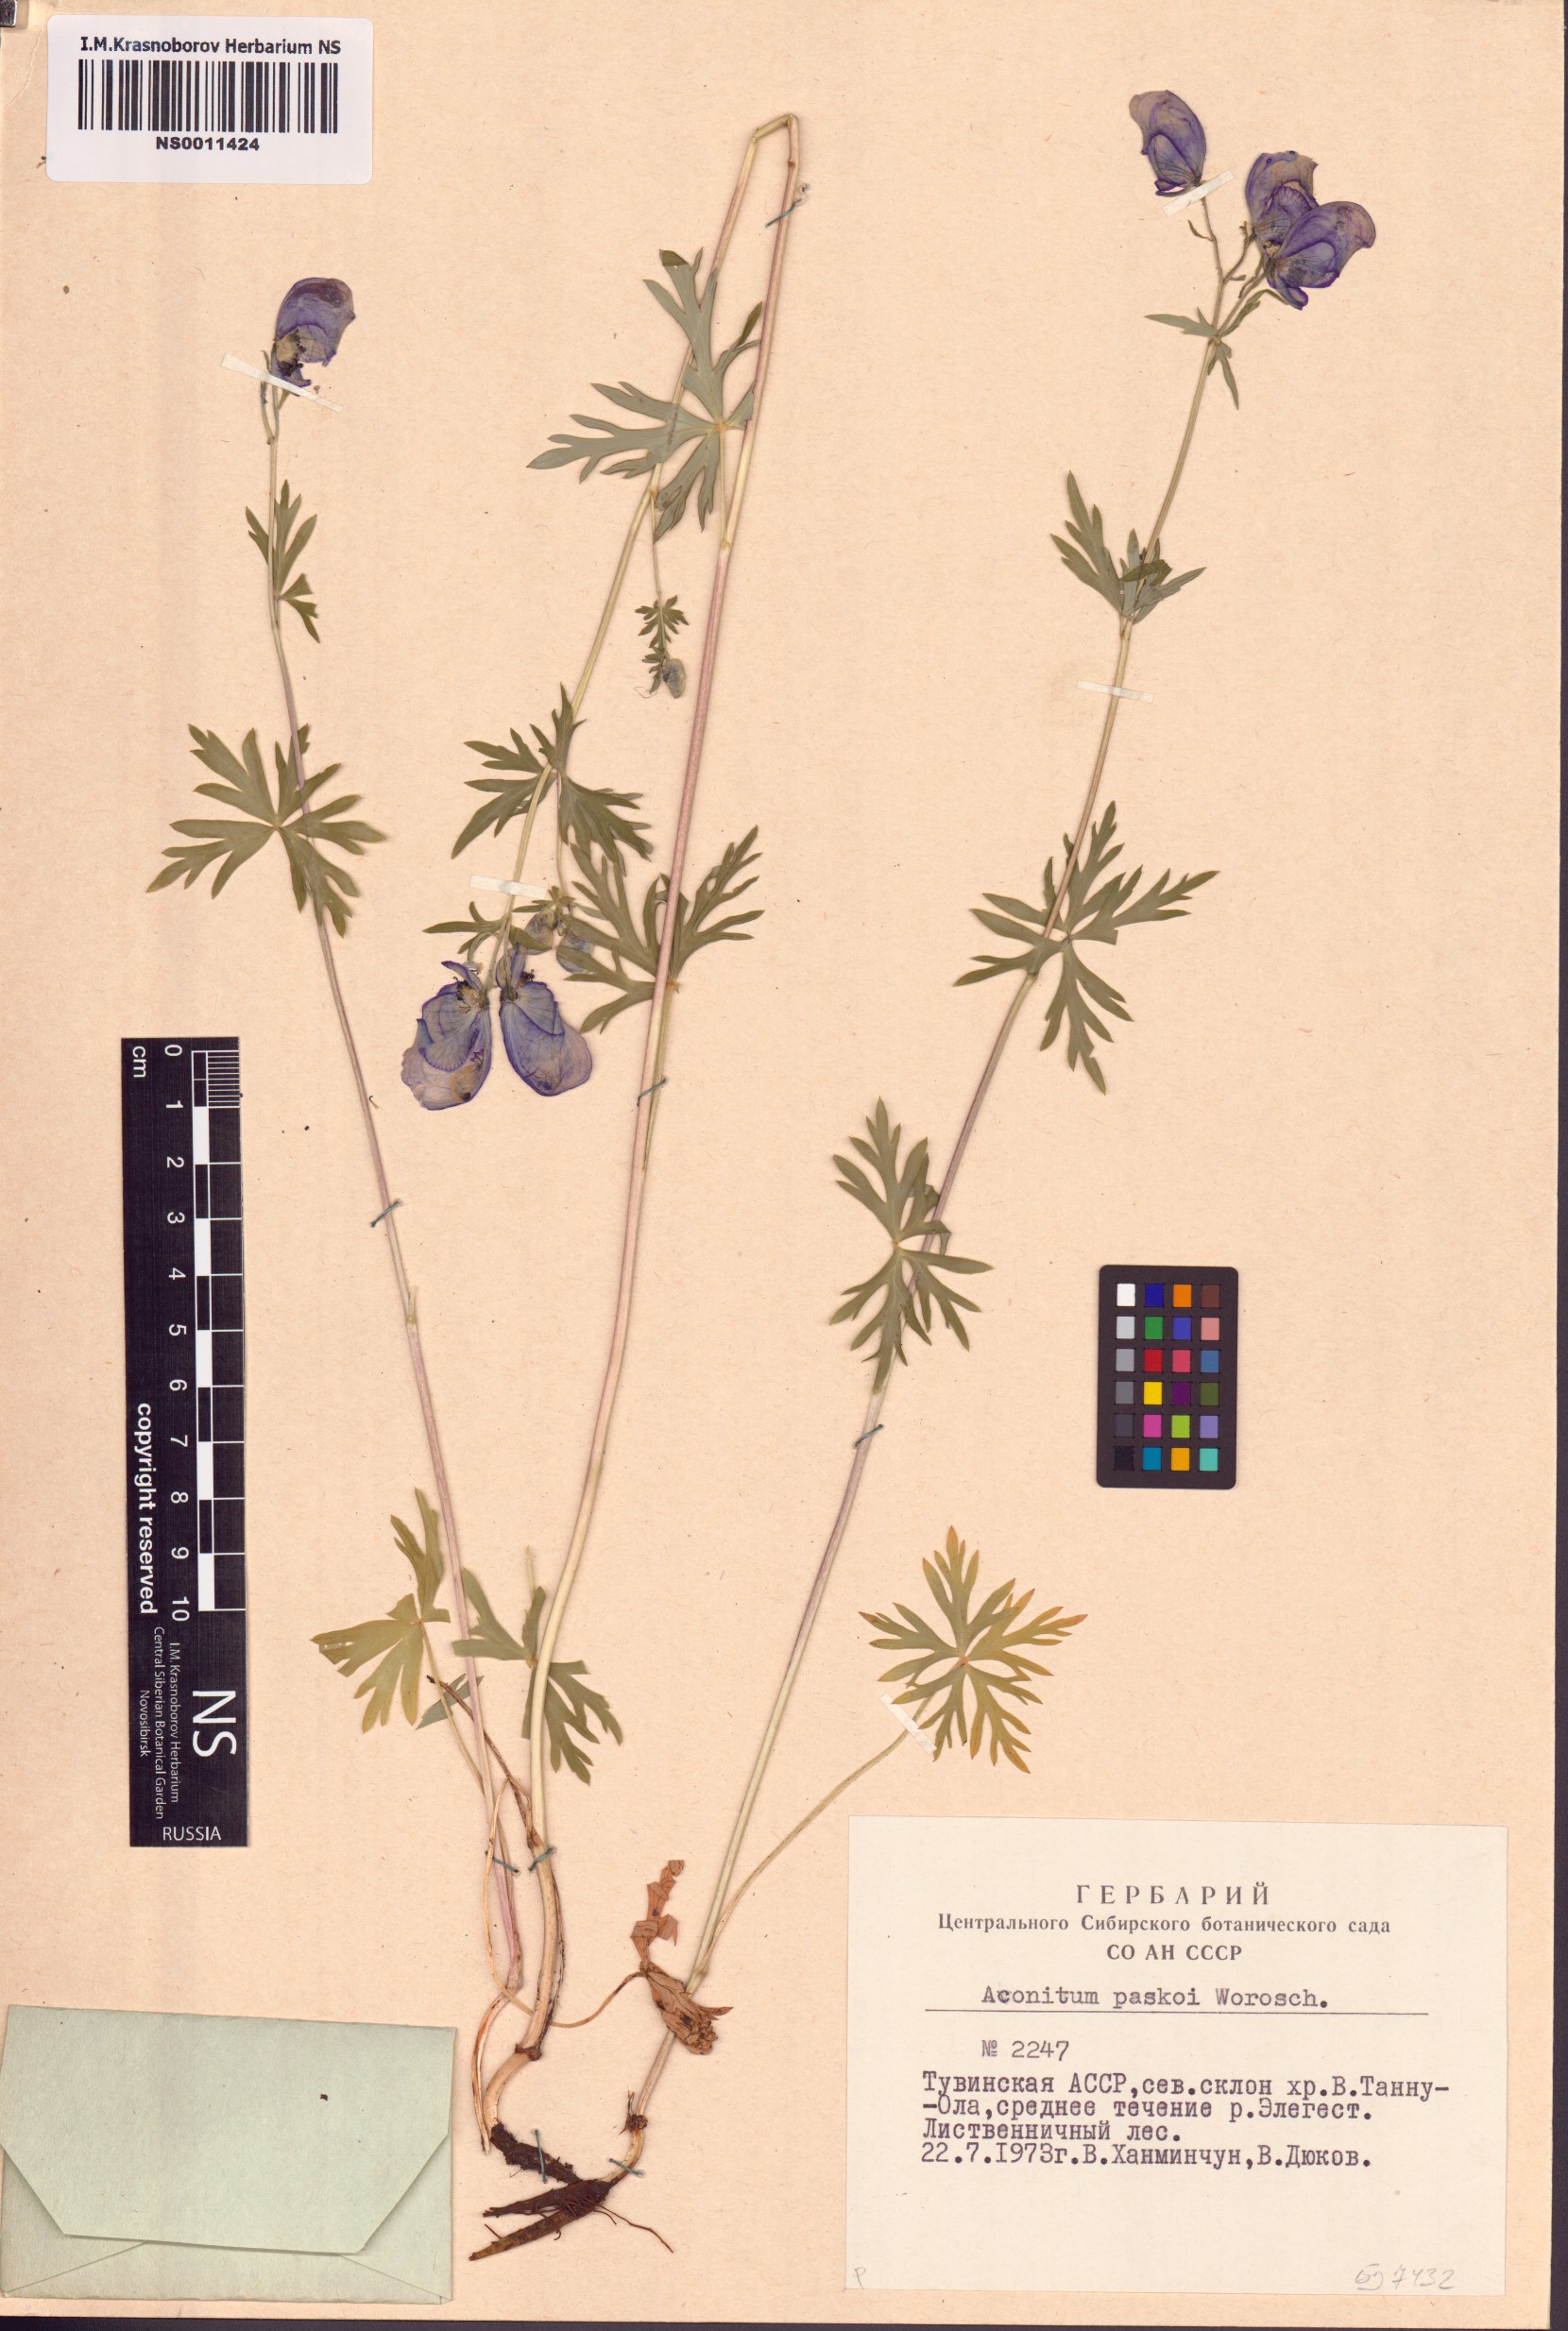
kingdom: Plantae
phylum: Tracheophyta
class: Magnoliopsida
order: Ranunculales
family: Ranunculaceae
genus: Aconitum
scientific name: Aconitum pascoi
